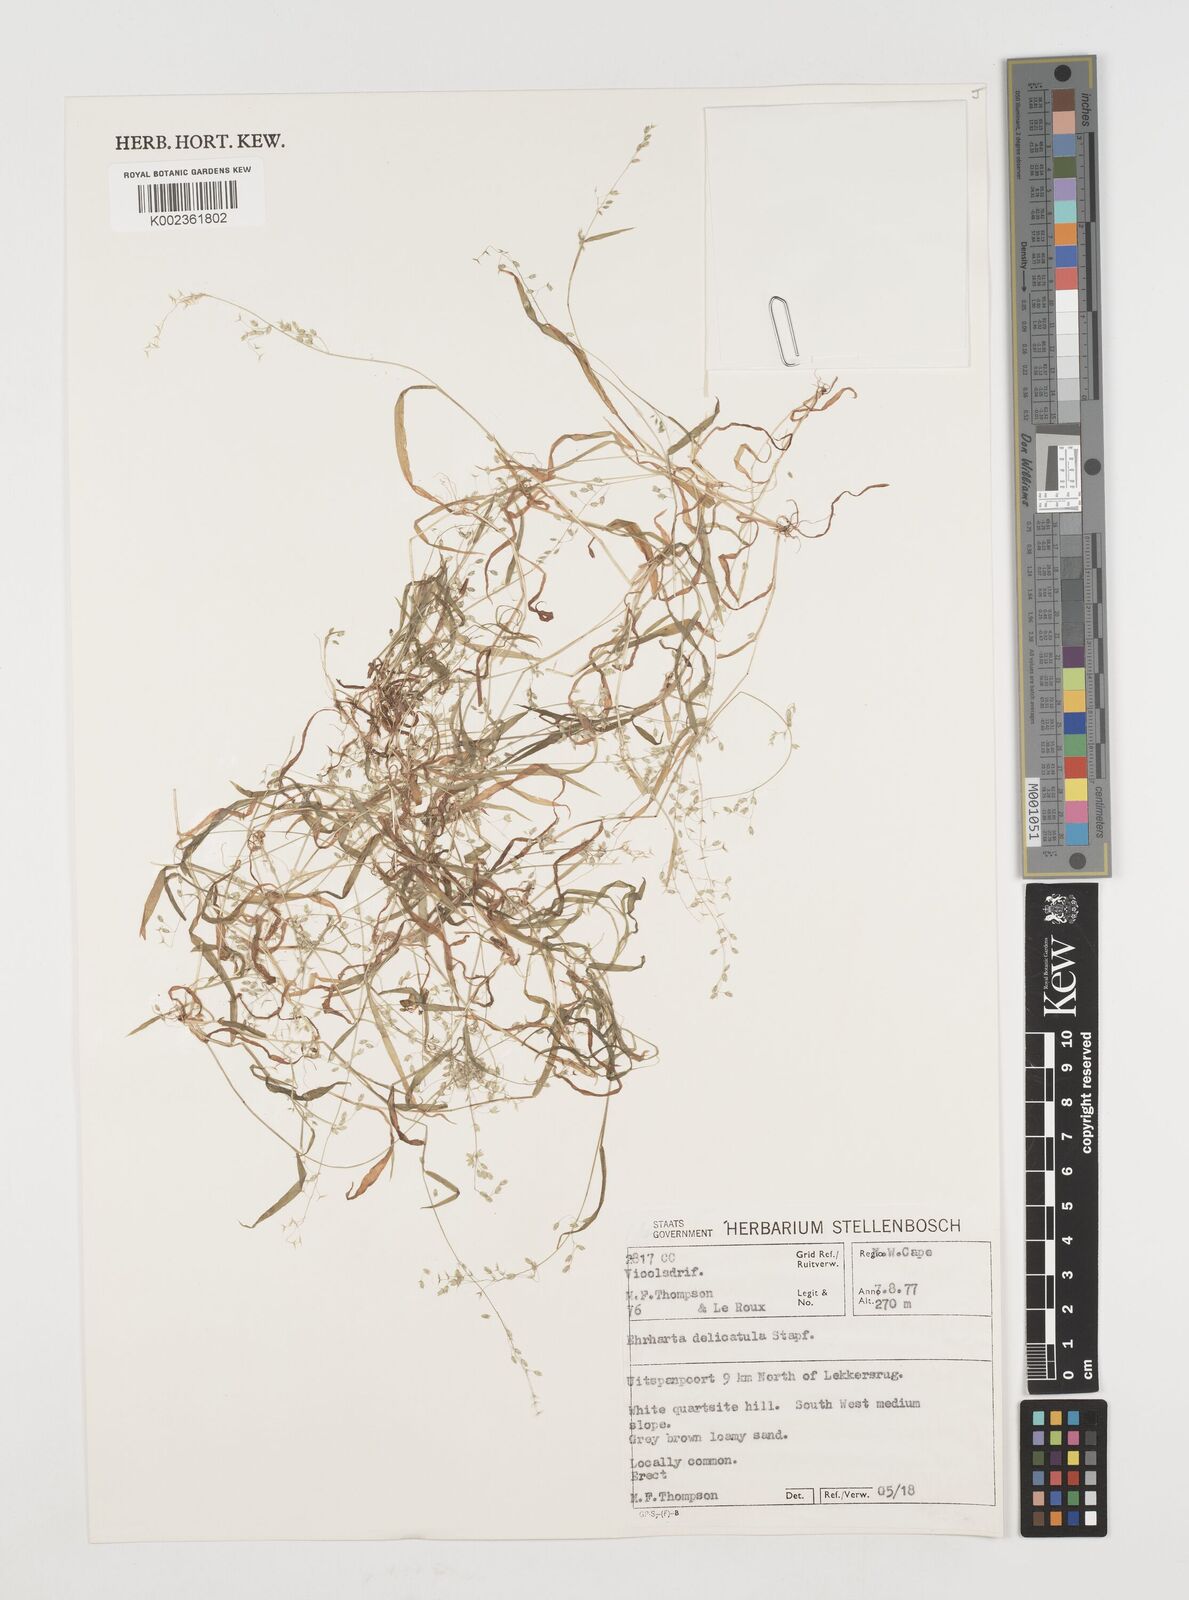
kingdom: Plantae
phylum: Tracheophyta
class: Liliopsida
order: Poales
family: Poaceae
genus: Ehrharta
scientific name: Ehrharta delicatula
